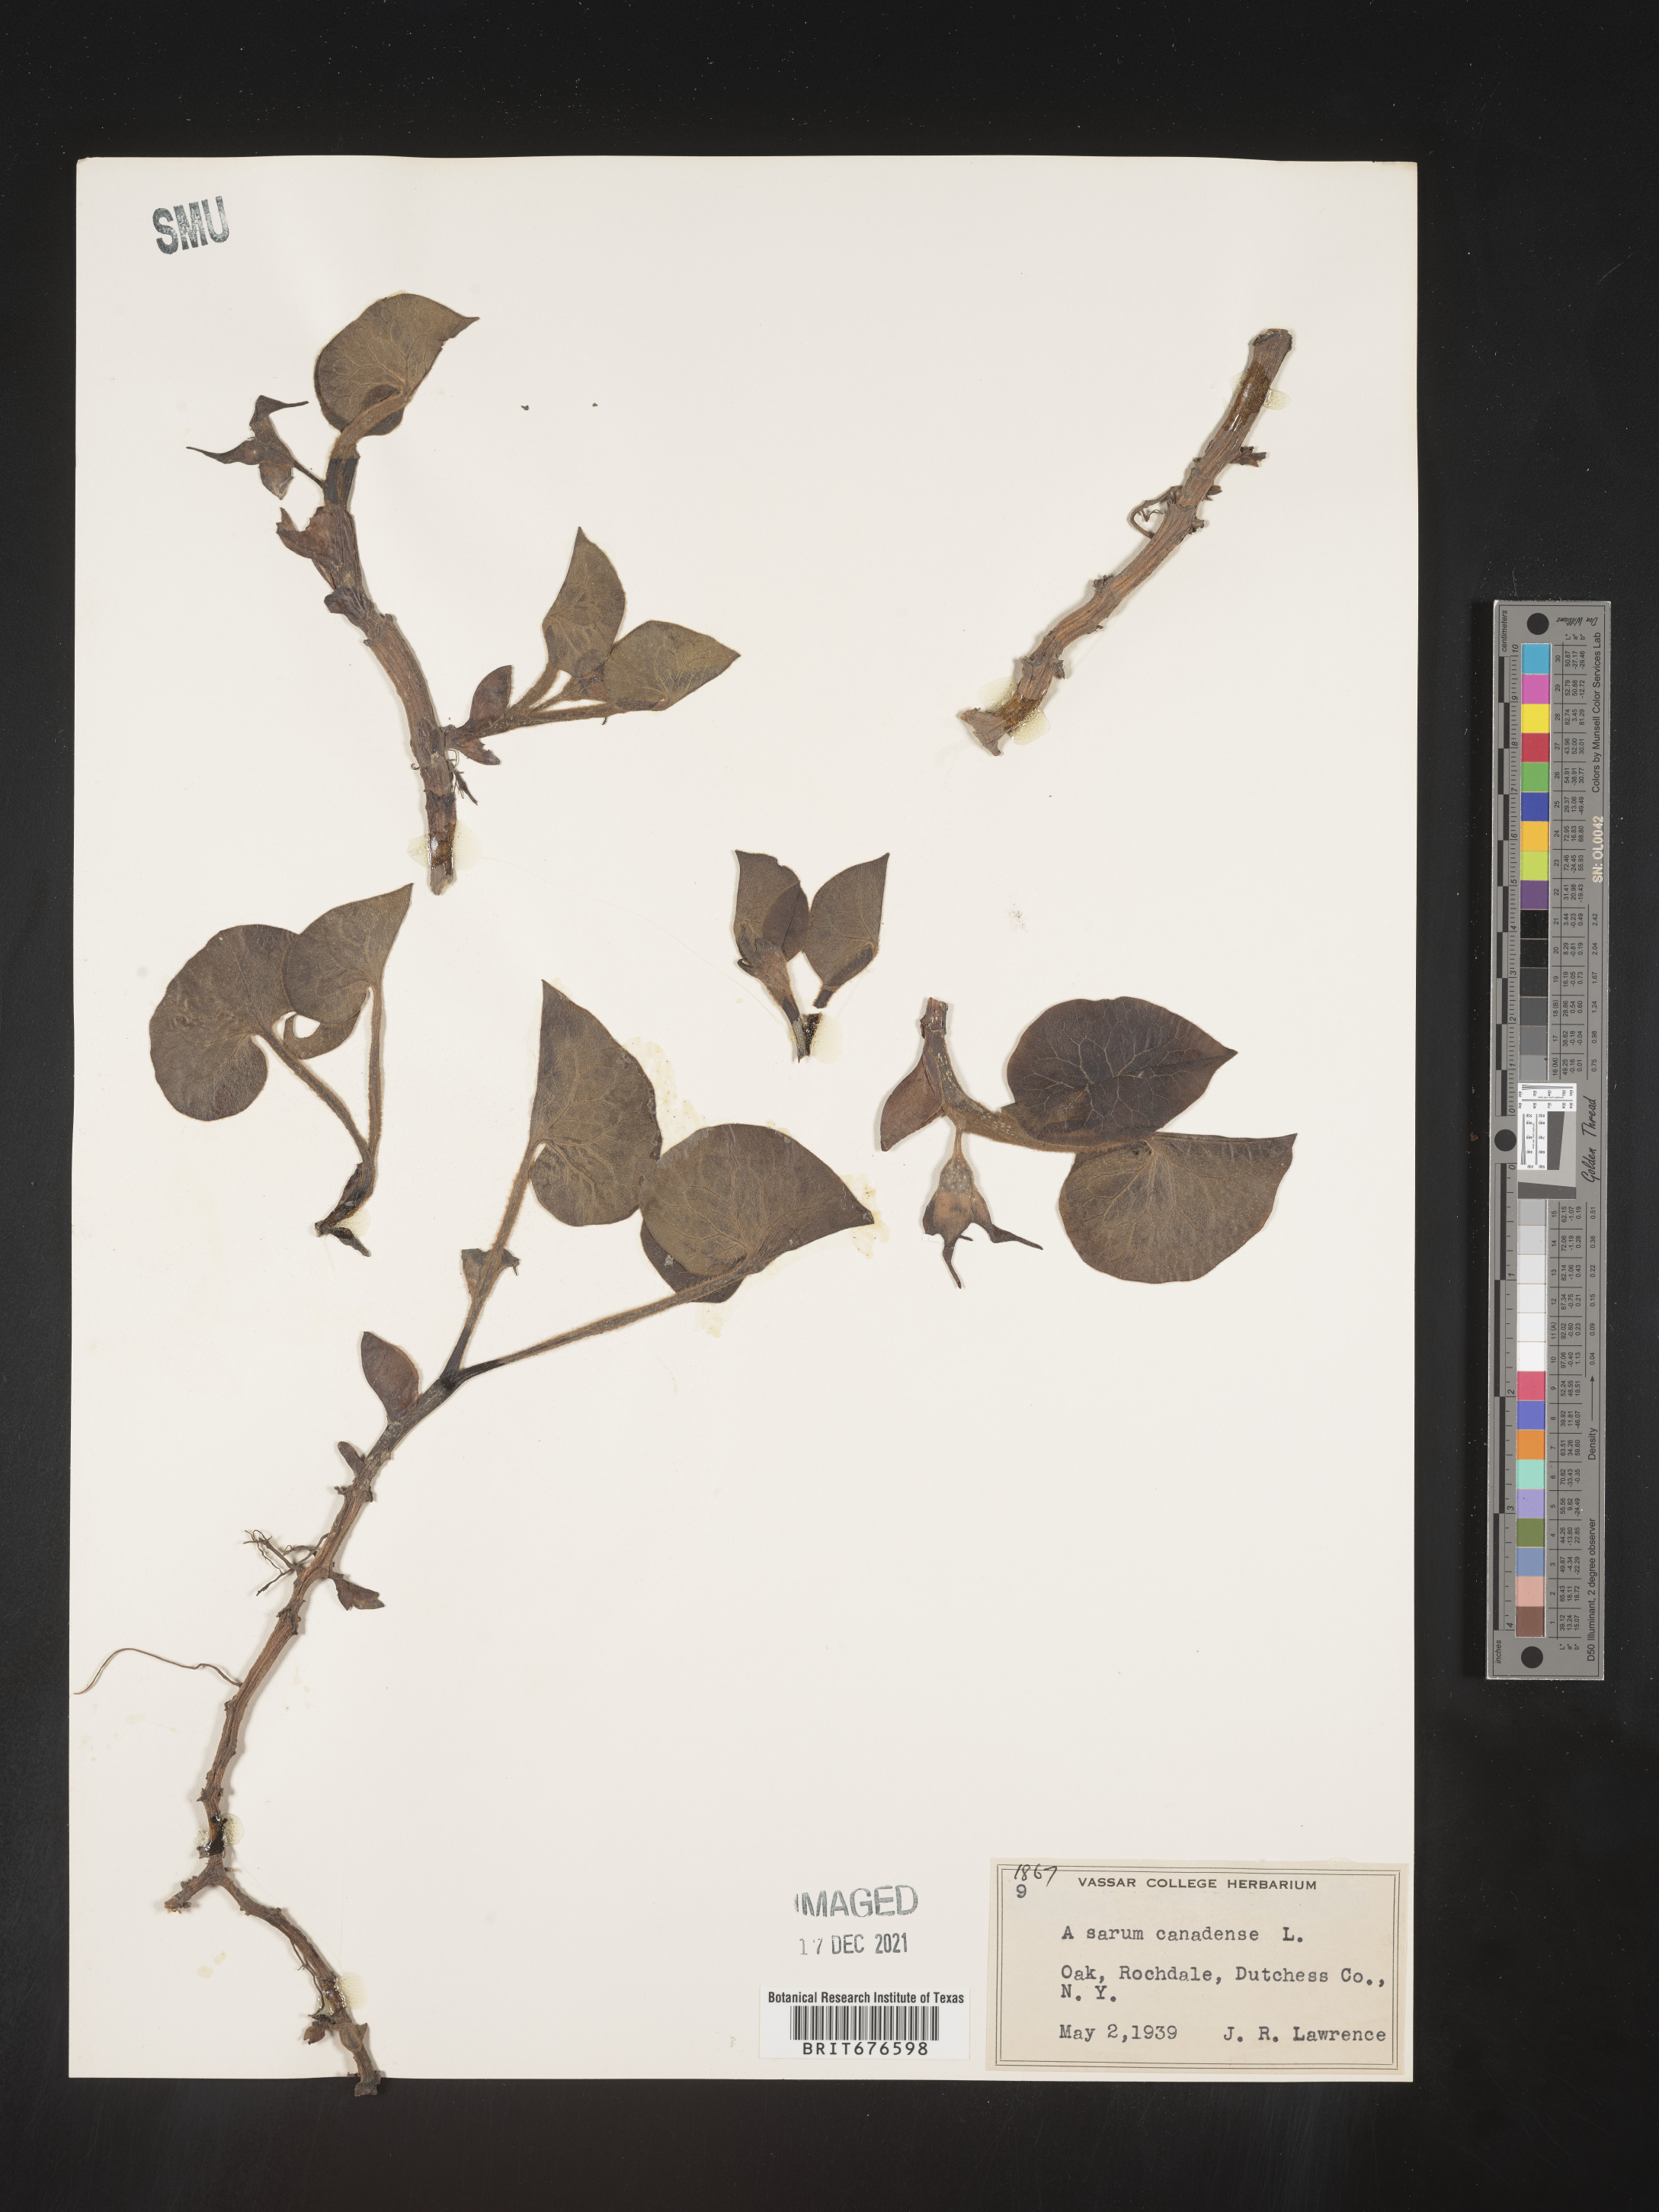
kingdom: Plantae
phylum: Tracheophyta
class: Magnoliopsida
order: Piperales
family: Aristolochiaceae
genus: Asarum
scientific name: Asarum canadense
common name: Wild ginger
